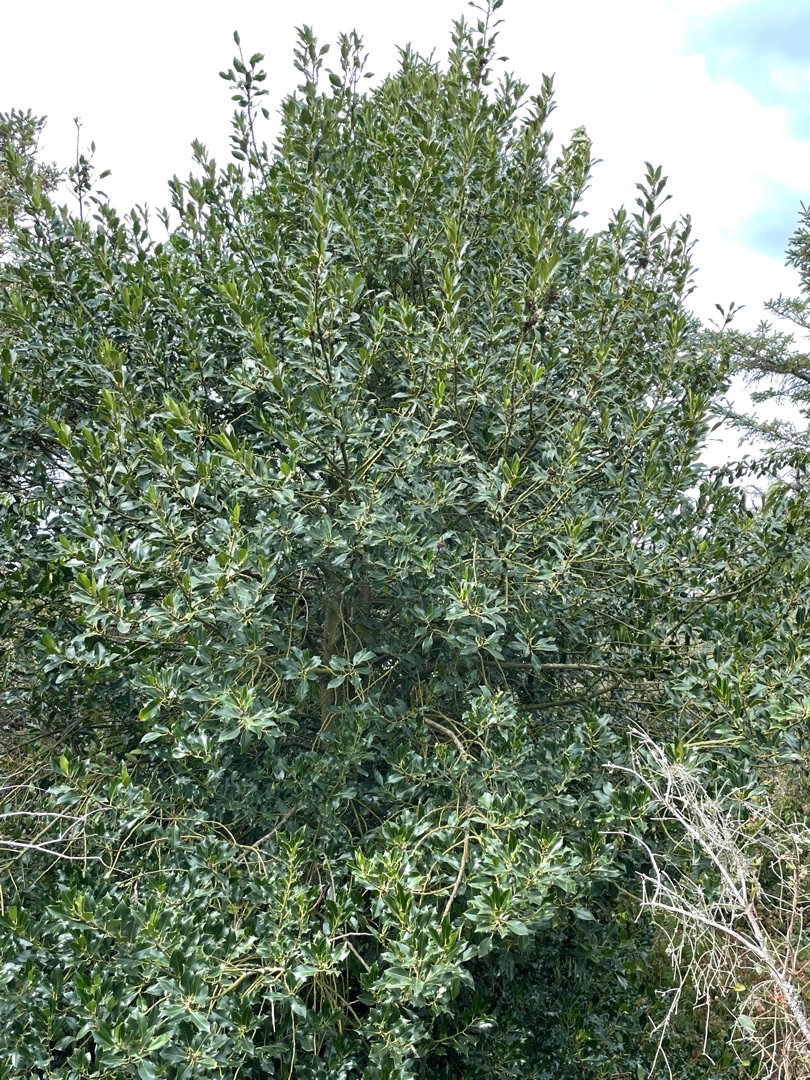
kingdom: Plantae
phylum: Tracheophyta
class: Magnoliopsida
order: Aquifoliales
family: Aquifoliaceae
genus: Ilex
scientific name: Ilex aquifolium
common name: Kristtorn
